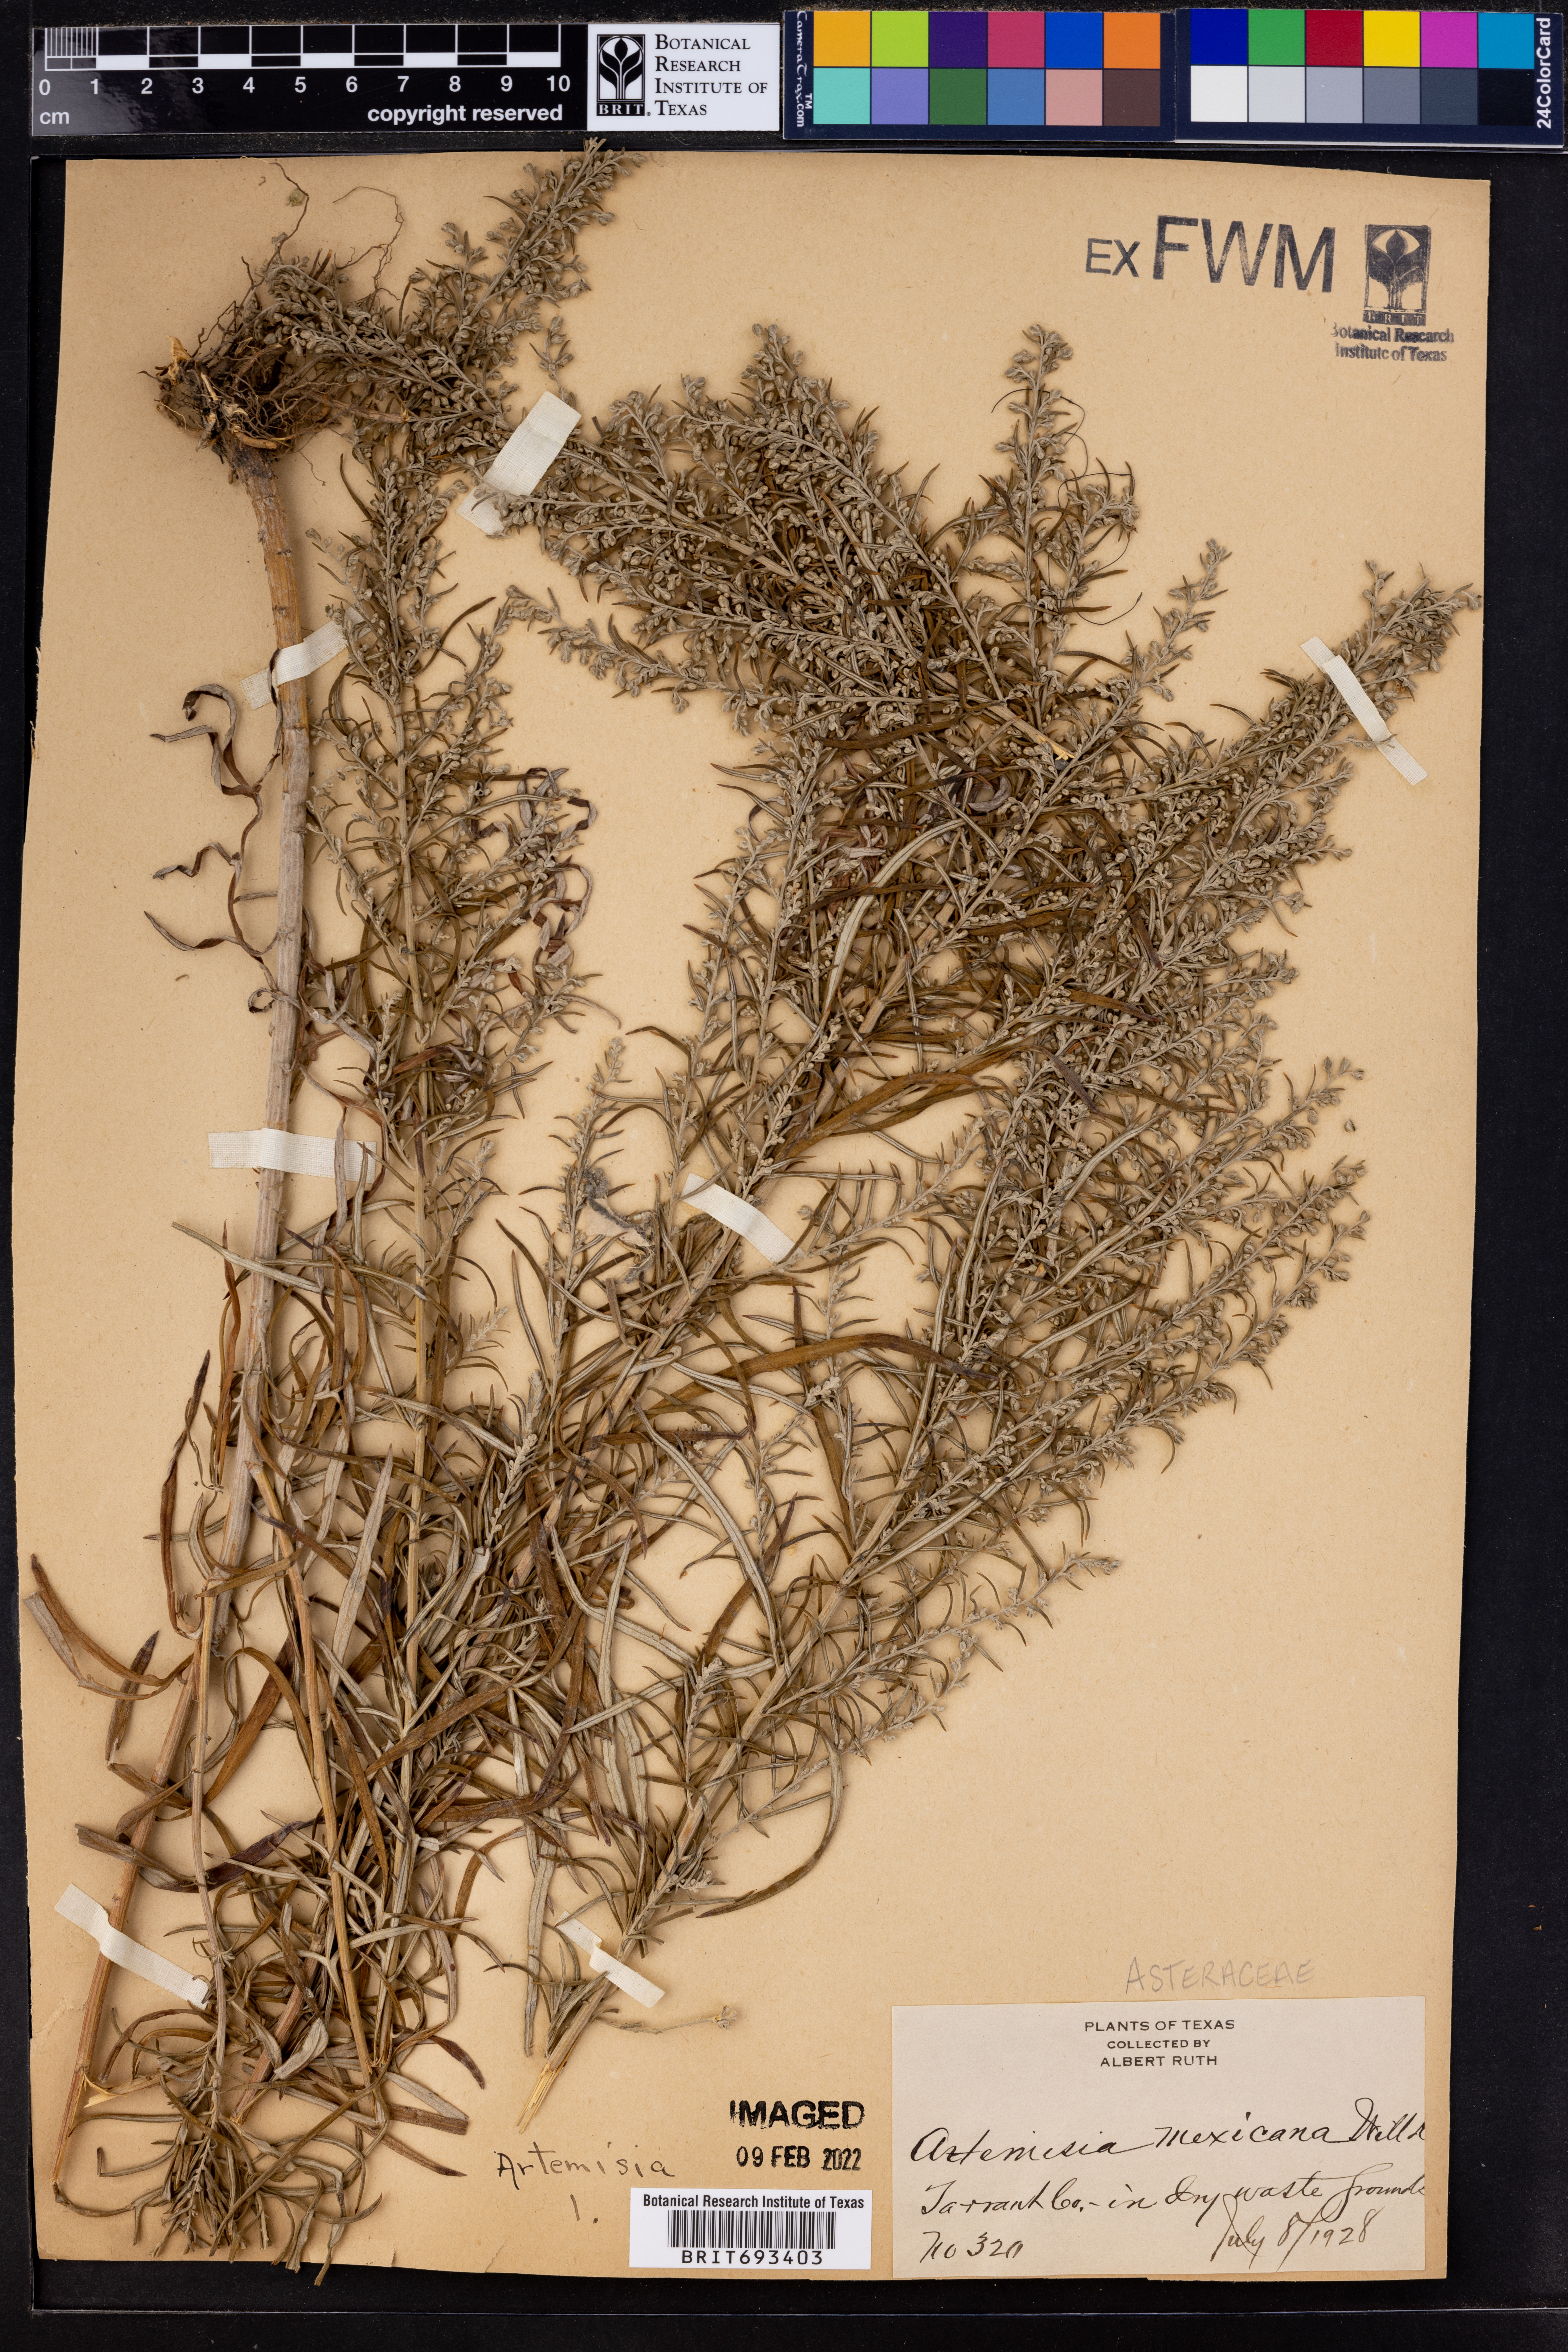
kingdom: Plantae
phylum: Tracheophyta
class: Magnoliopsida
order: Asterales
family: Asteraceae
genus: Artemisia
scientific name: Artemisia ludoviciana
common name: Western mugwort
